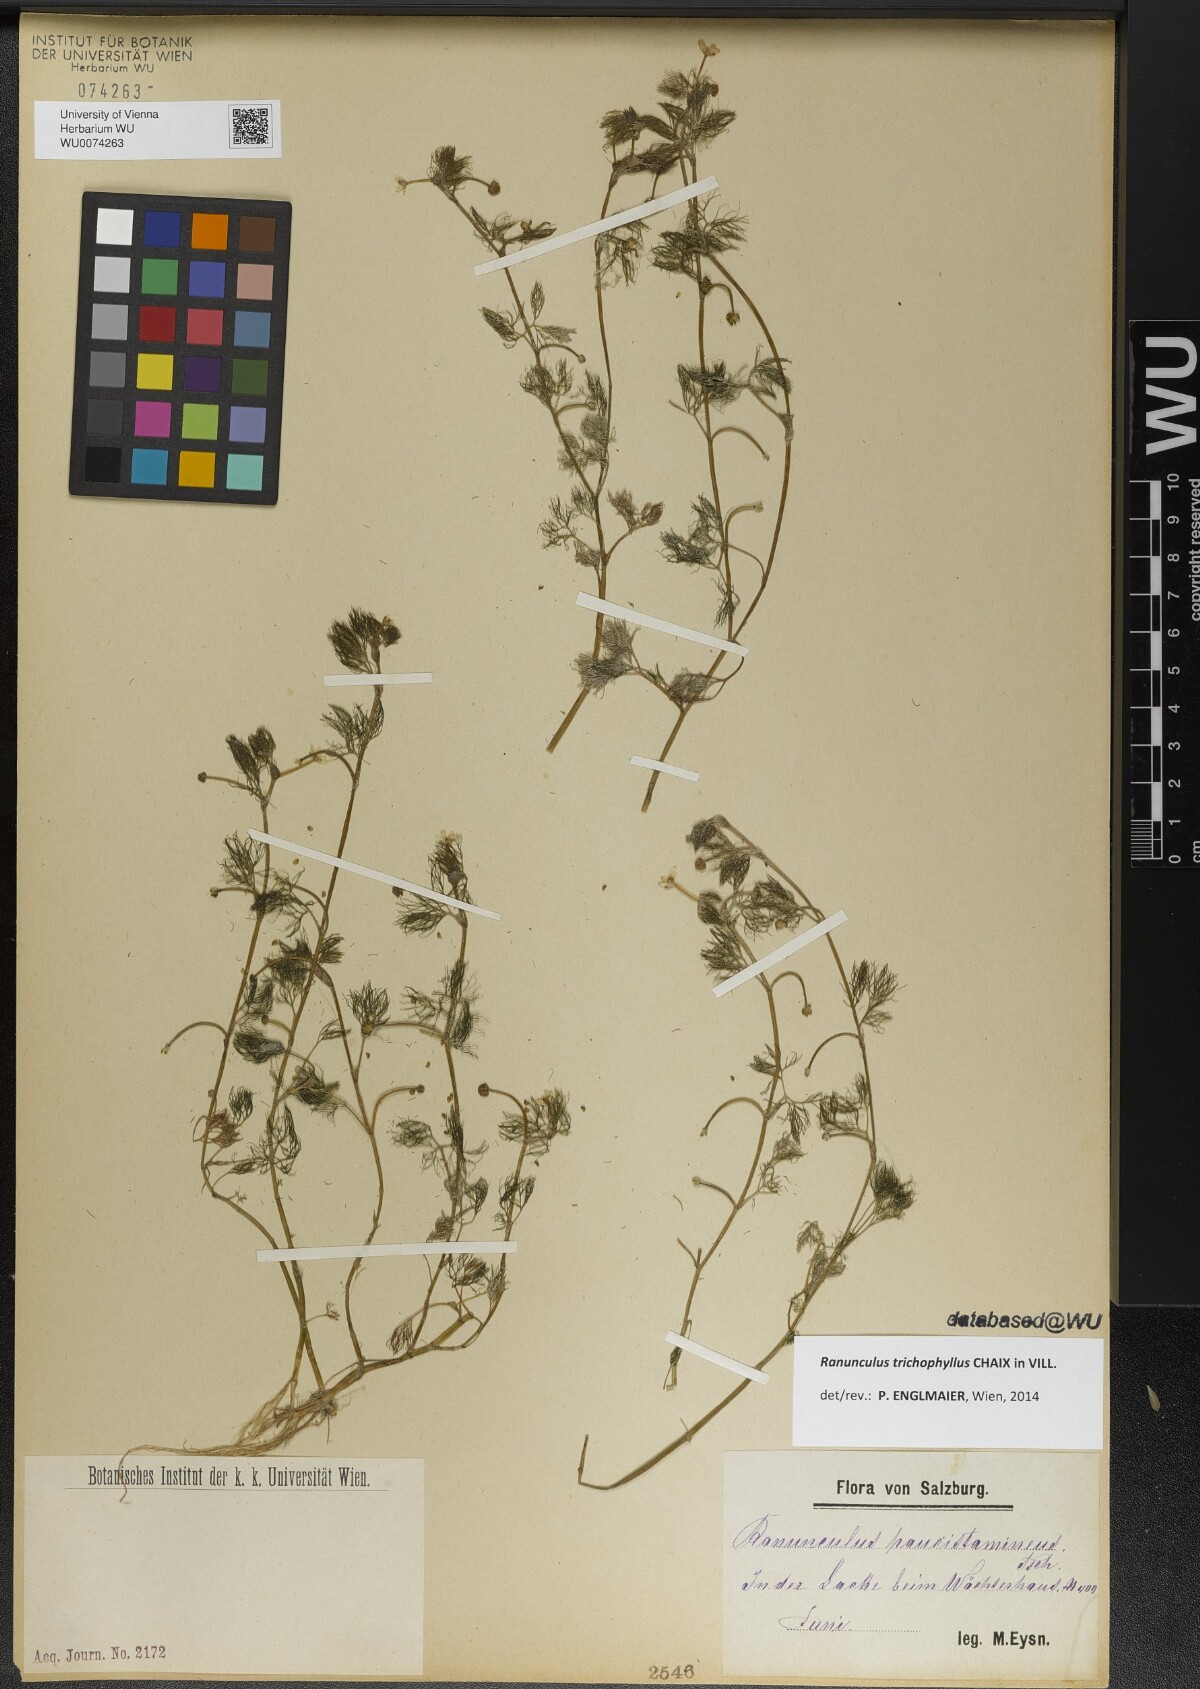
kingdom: Plantae
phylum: Tracheophyta
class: Magnoliopsida
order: Ranunculales
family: Ranunculaceae
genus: Ranunculus
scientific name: Ranunculus trichophyllus
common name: Thread-leaved water-crowfoot
